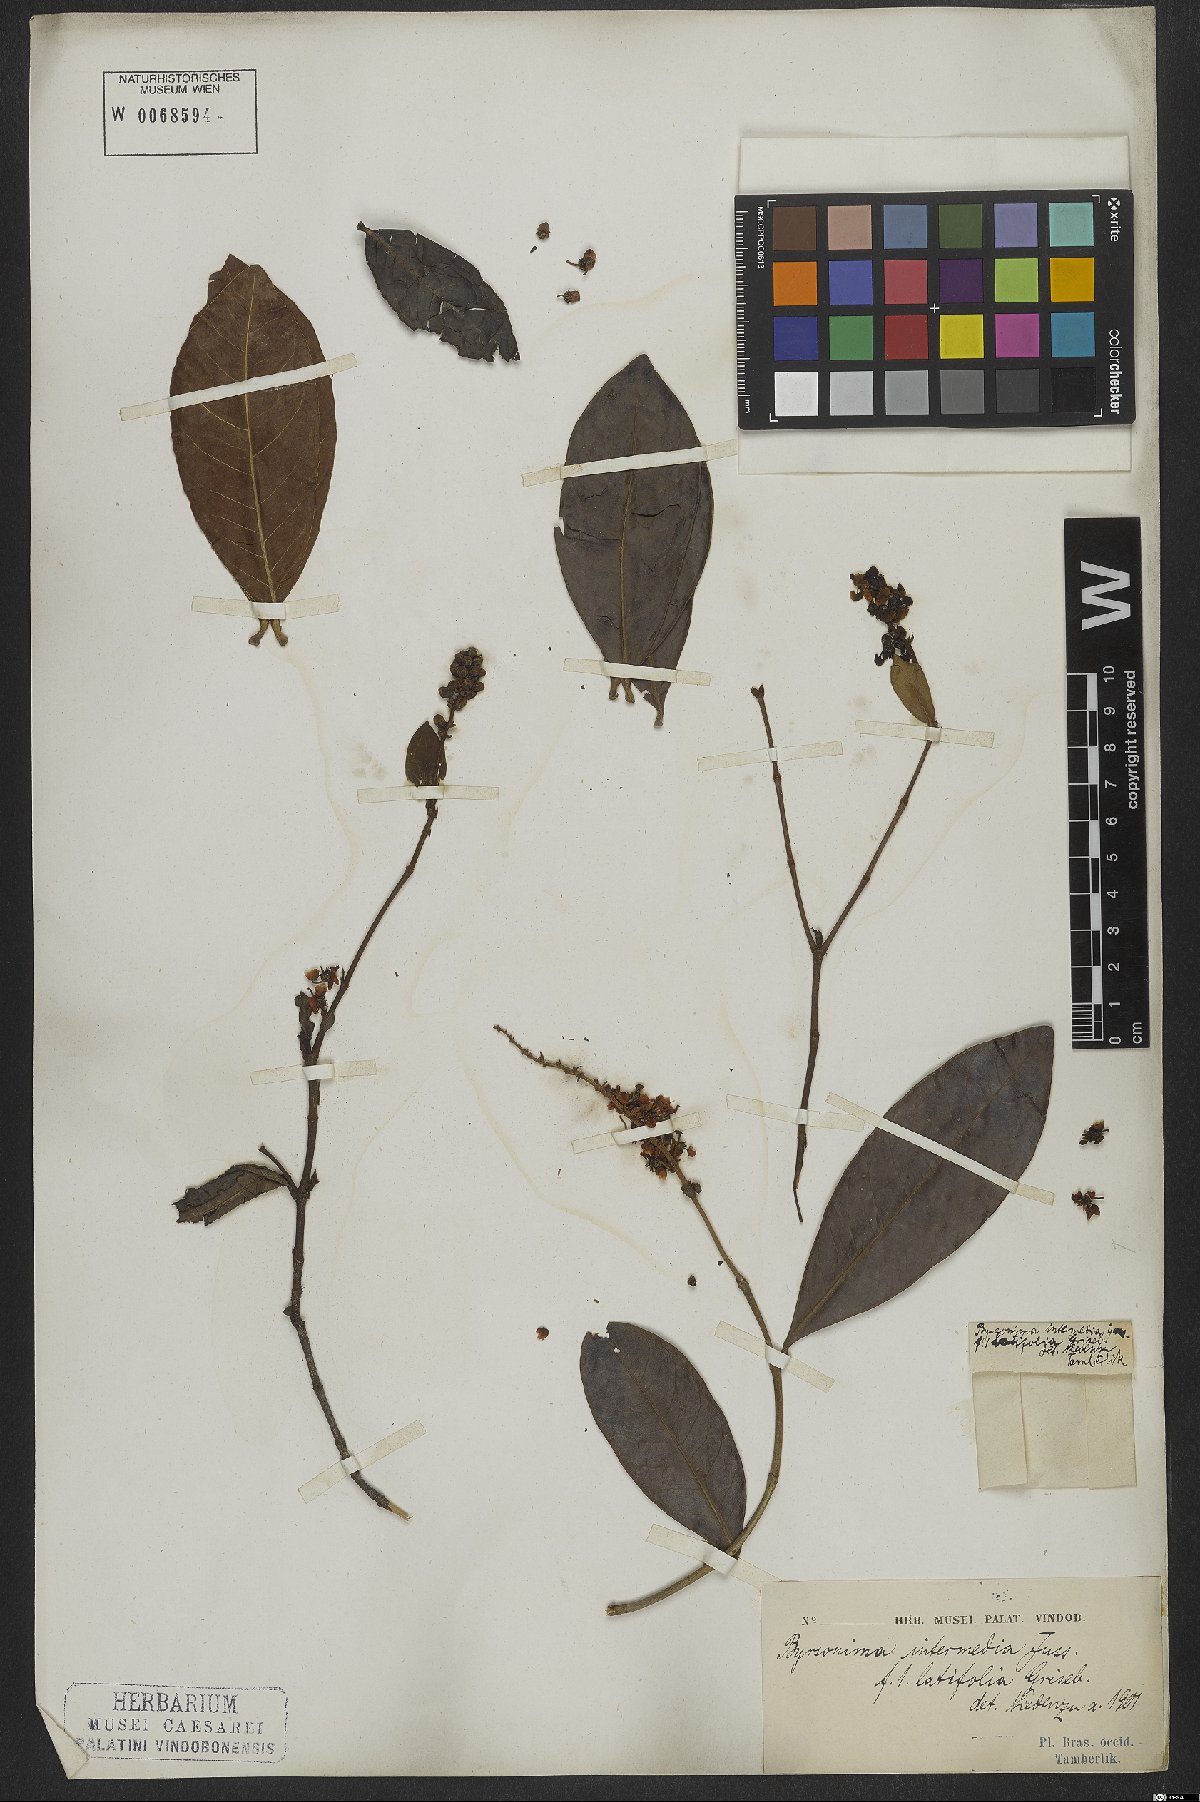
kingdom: Plantae
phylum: Tracheophyta
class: Magnoliopsida
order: Malpighiales
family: Malpighiaceae
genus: Byrsonima
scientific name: Byrsonima intermedia
